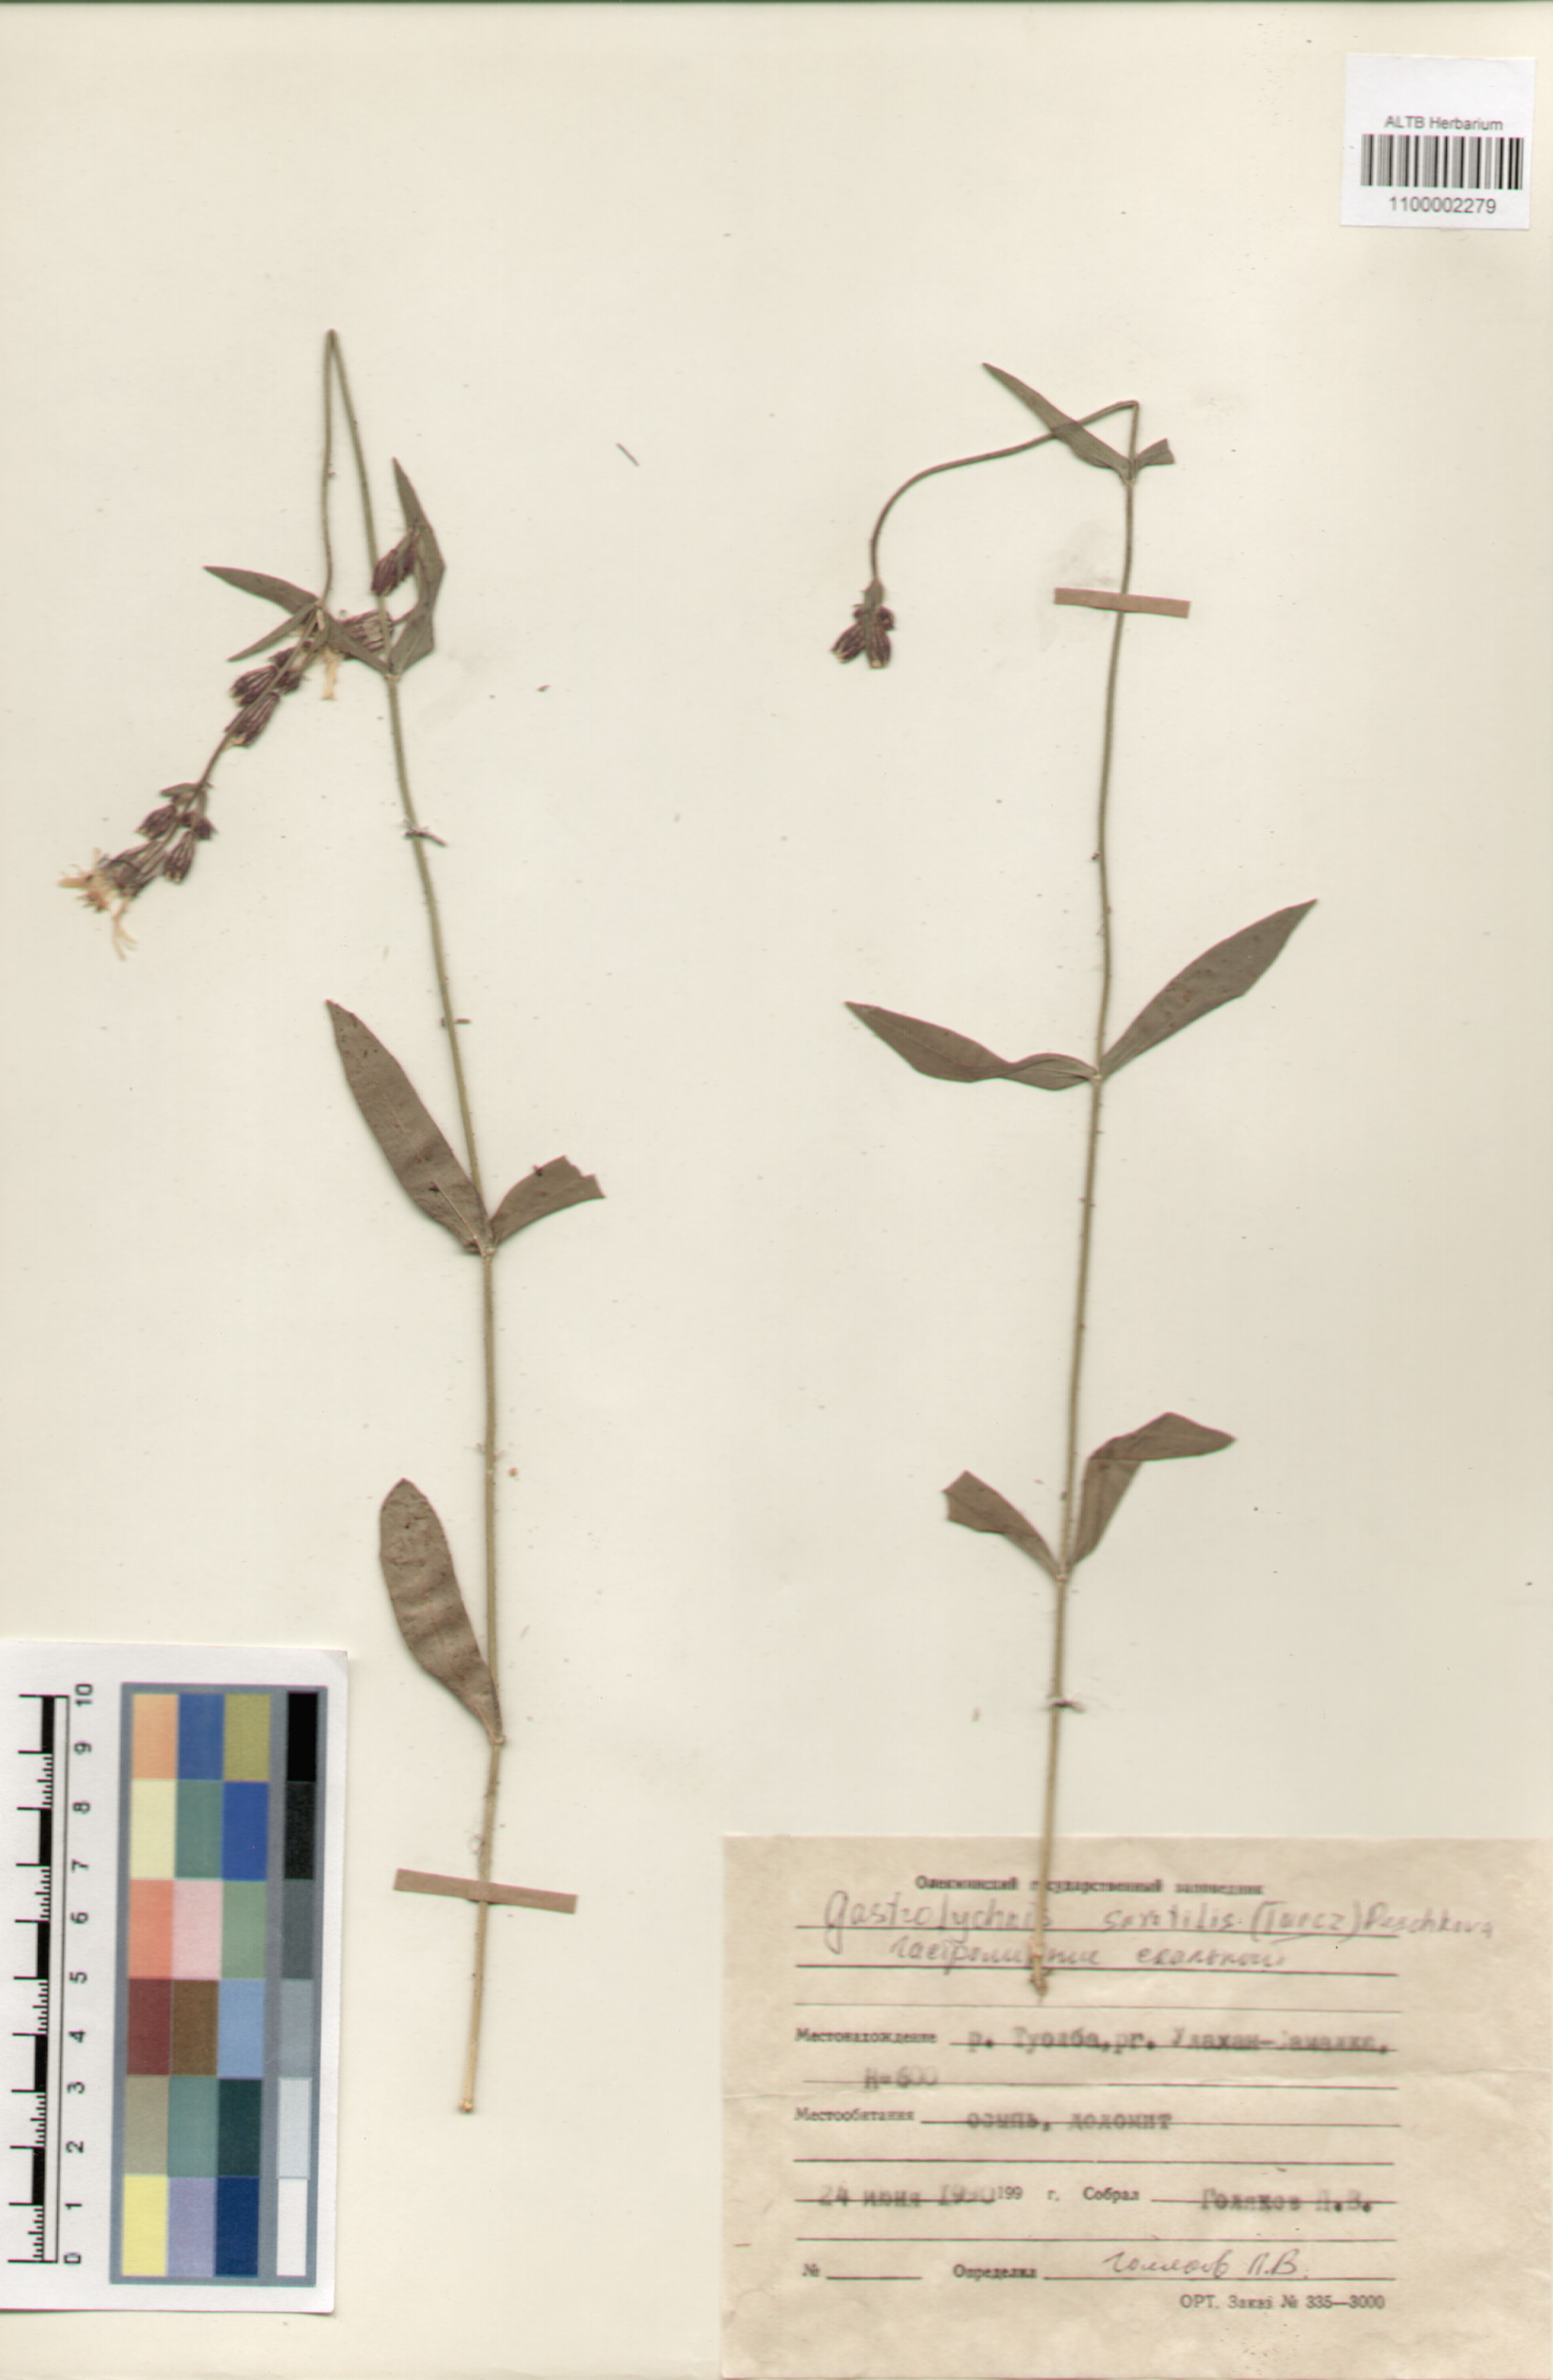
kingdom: Plantae
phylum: Tracheophyta
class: Magnoliopsida
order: Caryophyllales
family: Caryophyllaceae
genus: Silene
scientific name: Silene tolmatchevii
